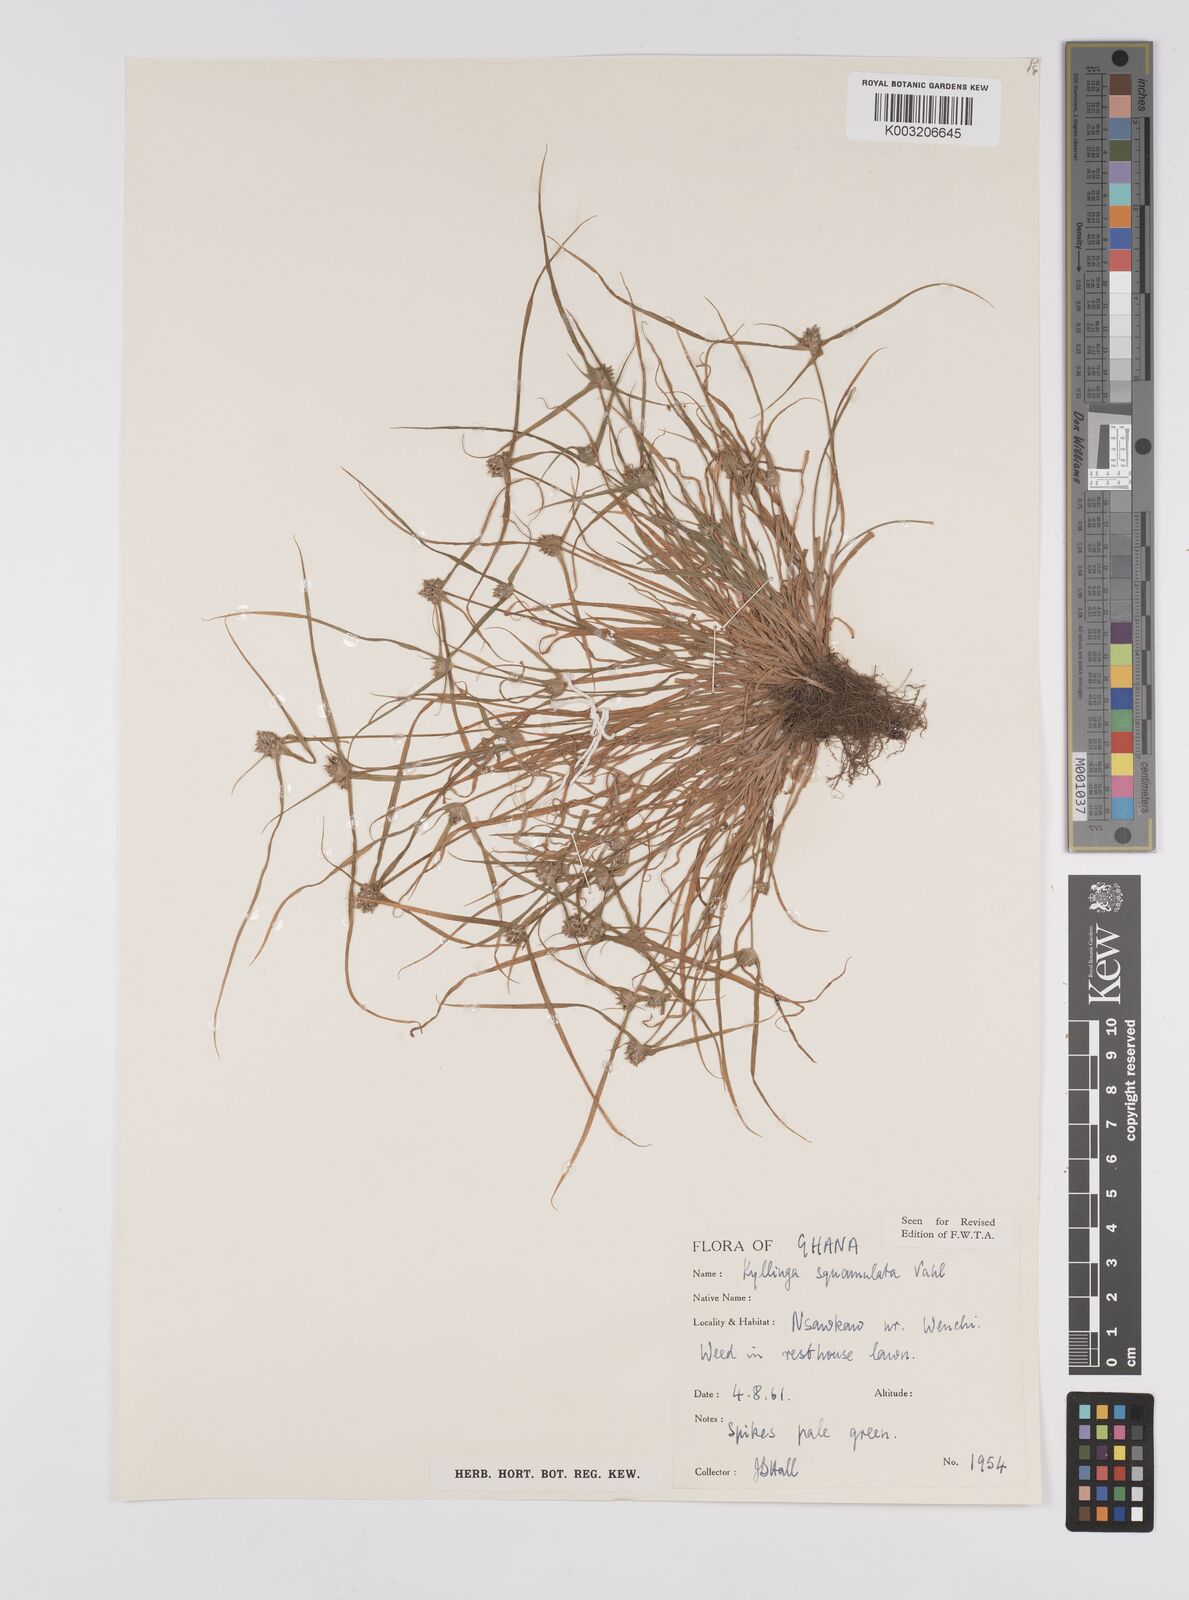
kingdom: Plantae
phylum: Tracheophyta
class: Liliopsida
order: Poales
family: Cyperaceae
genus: Cyperus
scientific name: Cyperus distans
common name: Slender cyperus
